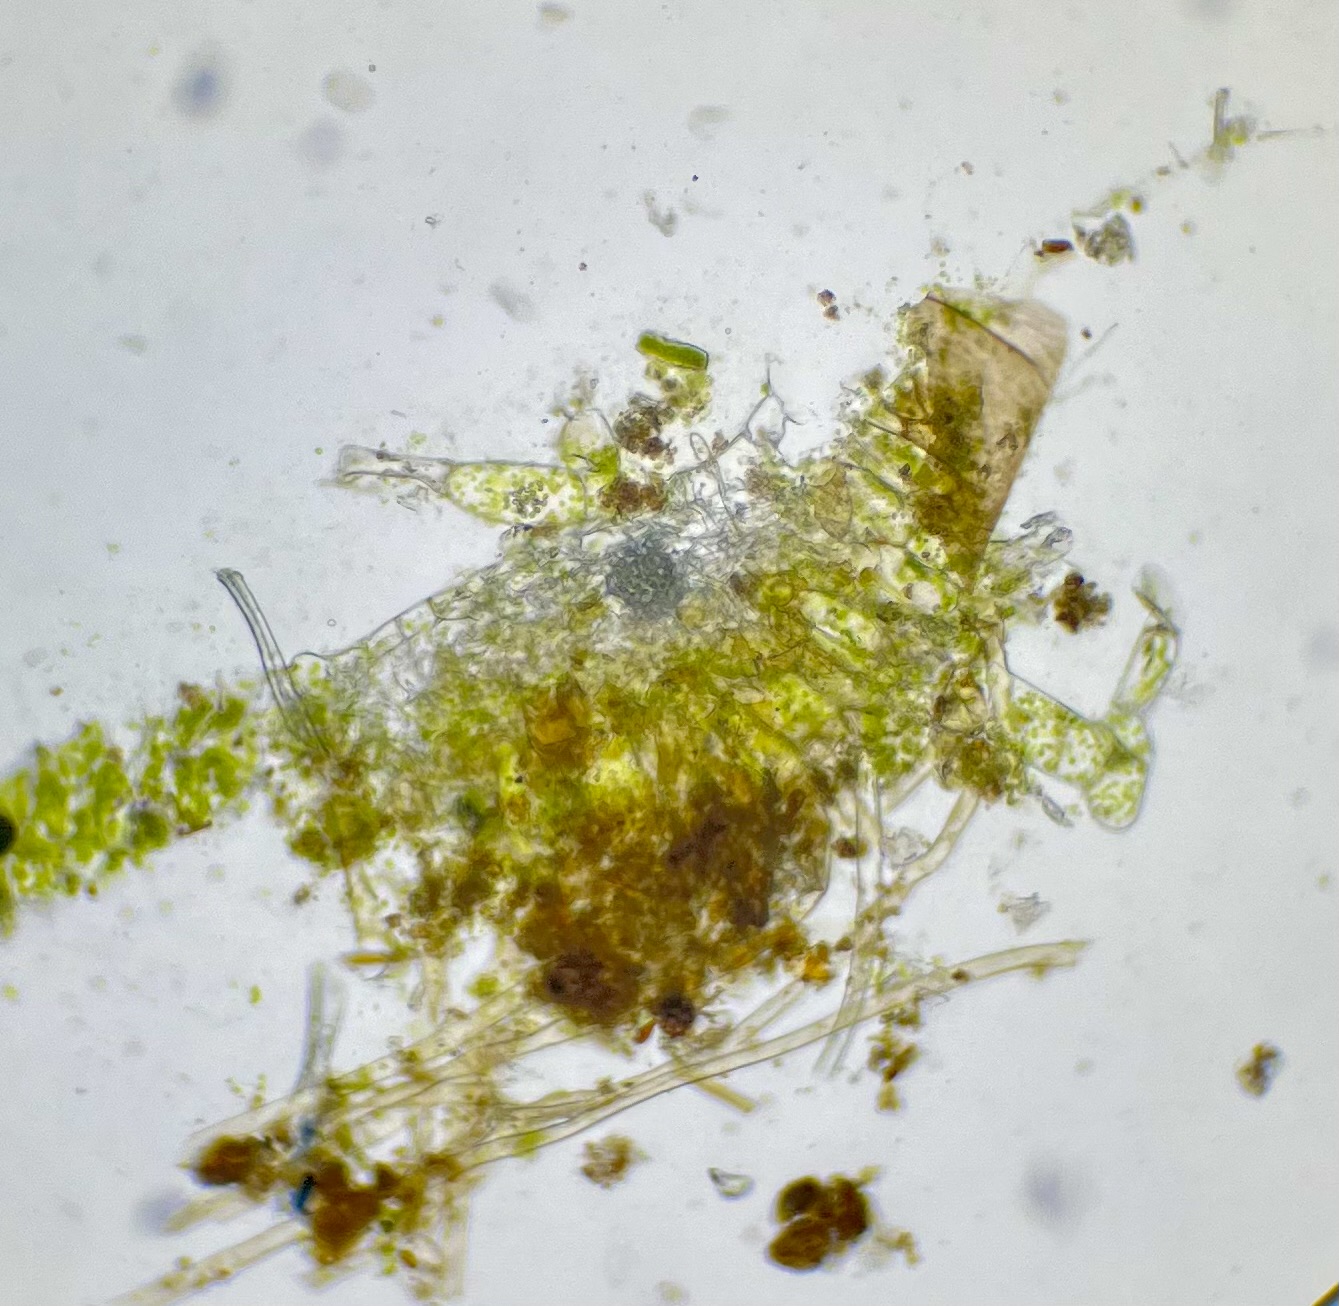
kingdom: Plantae
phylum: Marchantiophyta
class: Jungermanniopsida
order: Pallaviciniales
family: Pallaviciniaceae
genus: Pallavicinia
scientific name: Pallavicinia lyellii
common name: Almindelig strengløv
